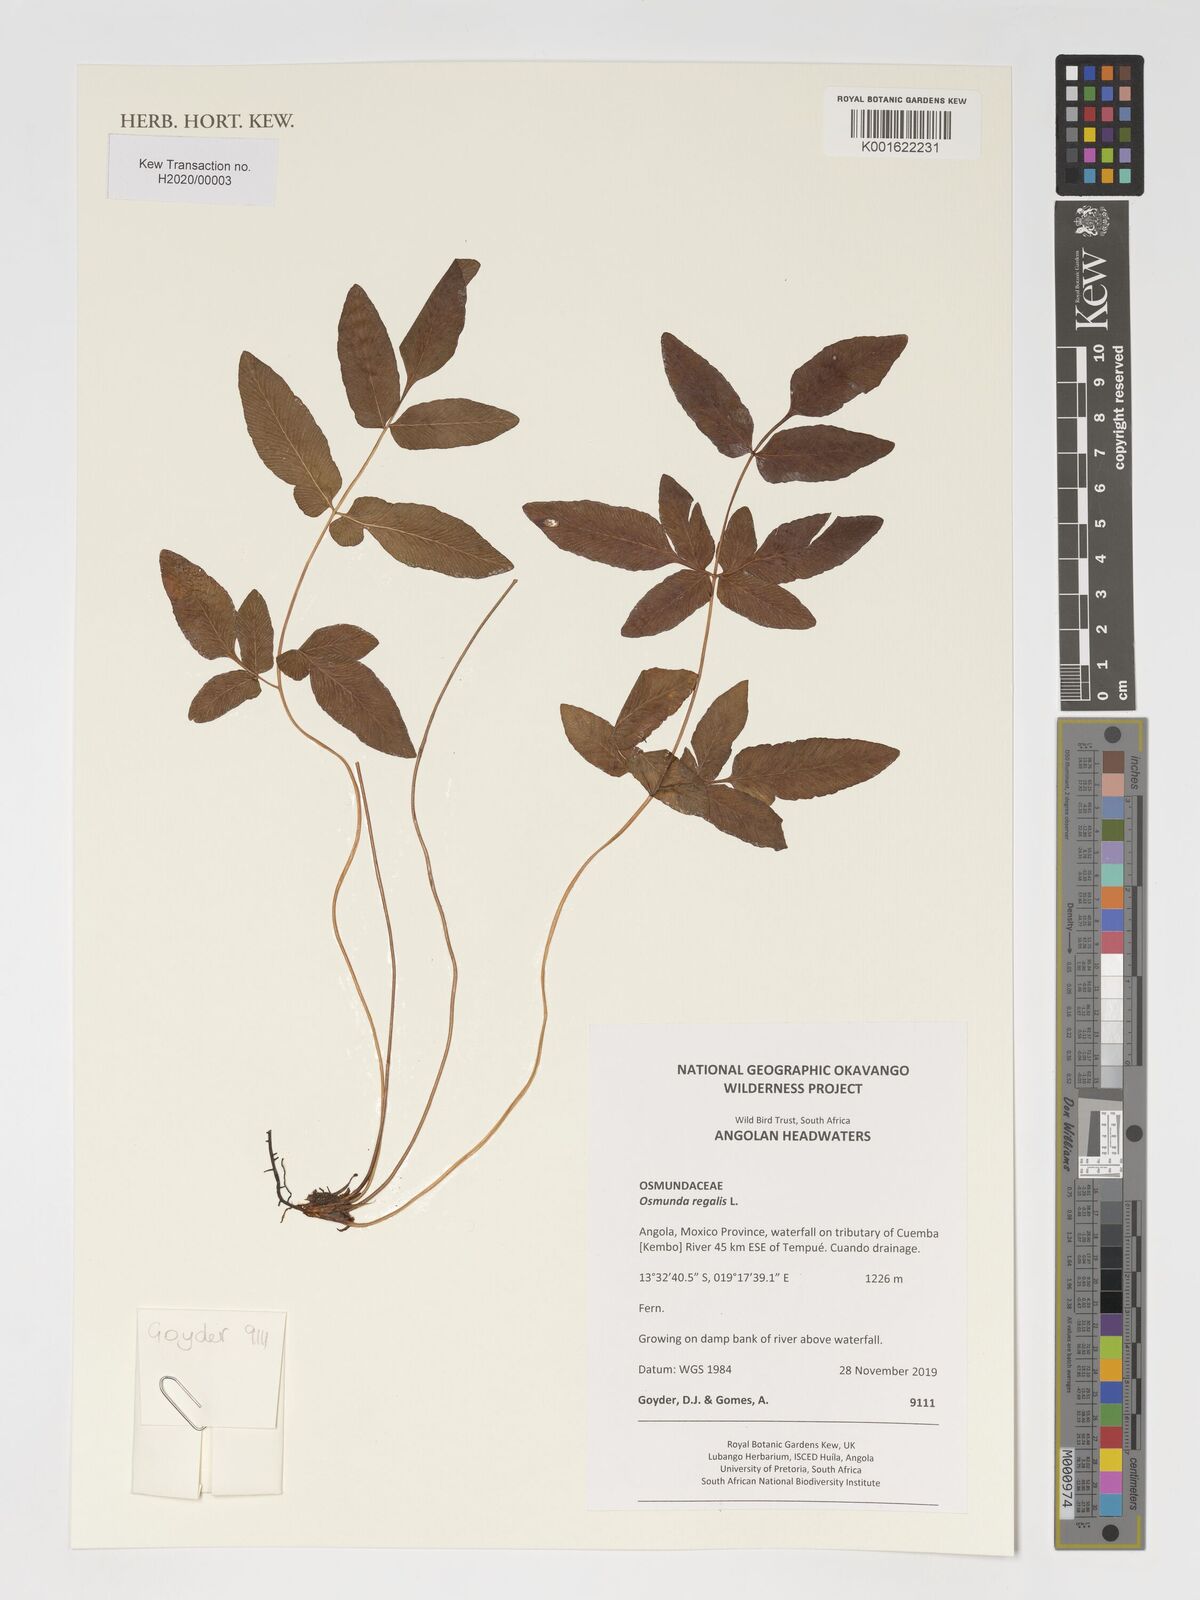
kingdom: Plantae
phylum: Tracheophyta
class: Polypodiopsida
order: Osmundales
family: Osmundaceae
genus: Osmunda
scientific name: Osmunda regalis
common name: Royal fern
